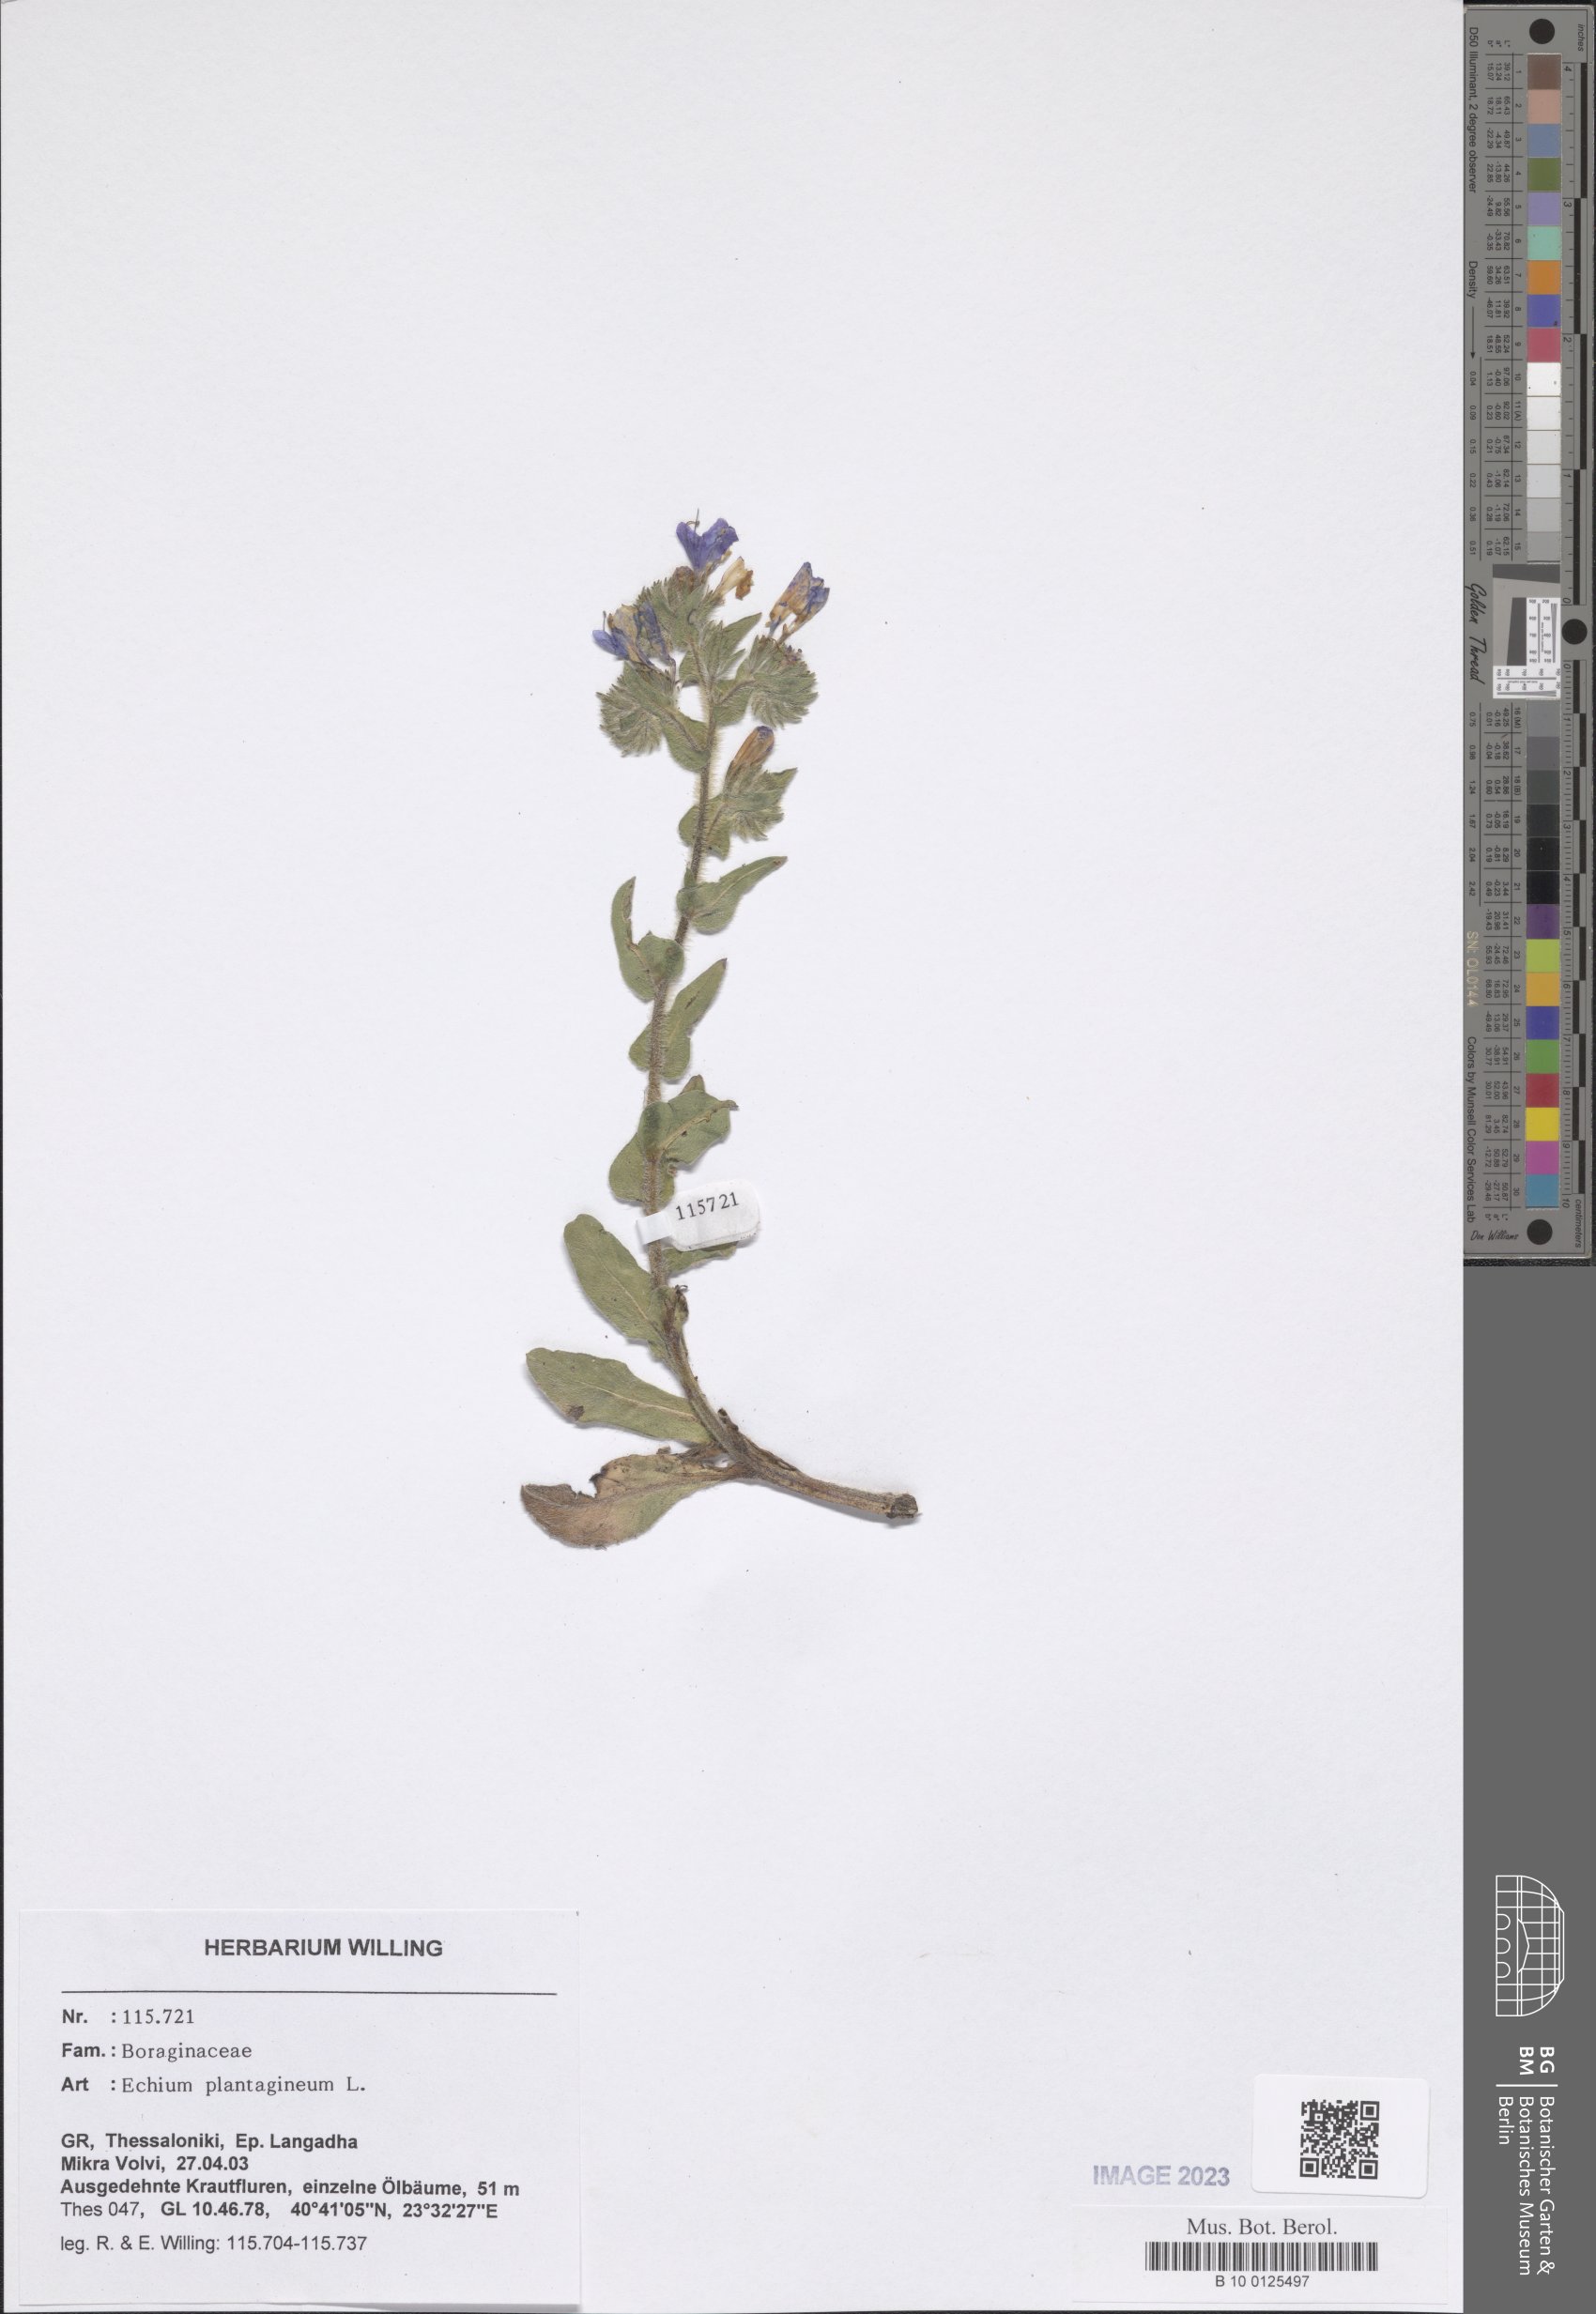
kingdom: Plantae
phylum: Tracheophyta
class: Magnoliopsida
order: Boraginales
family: Boraginaceae
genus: Echium
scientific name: Echium plantagineum
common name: Purple viper's-bugloss
